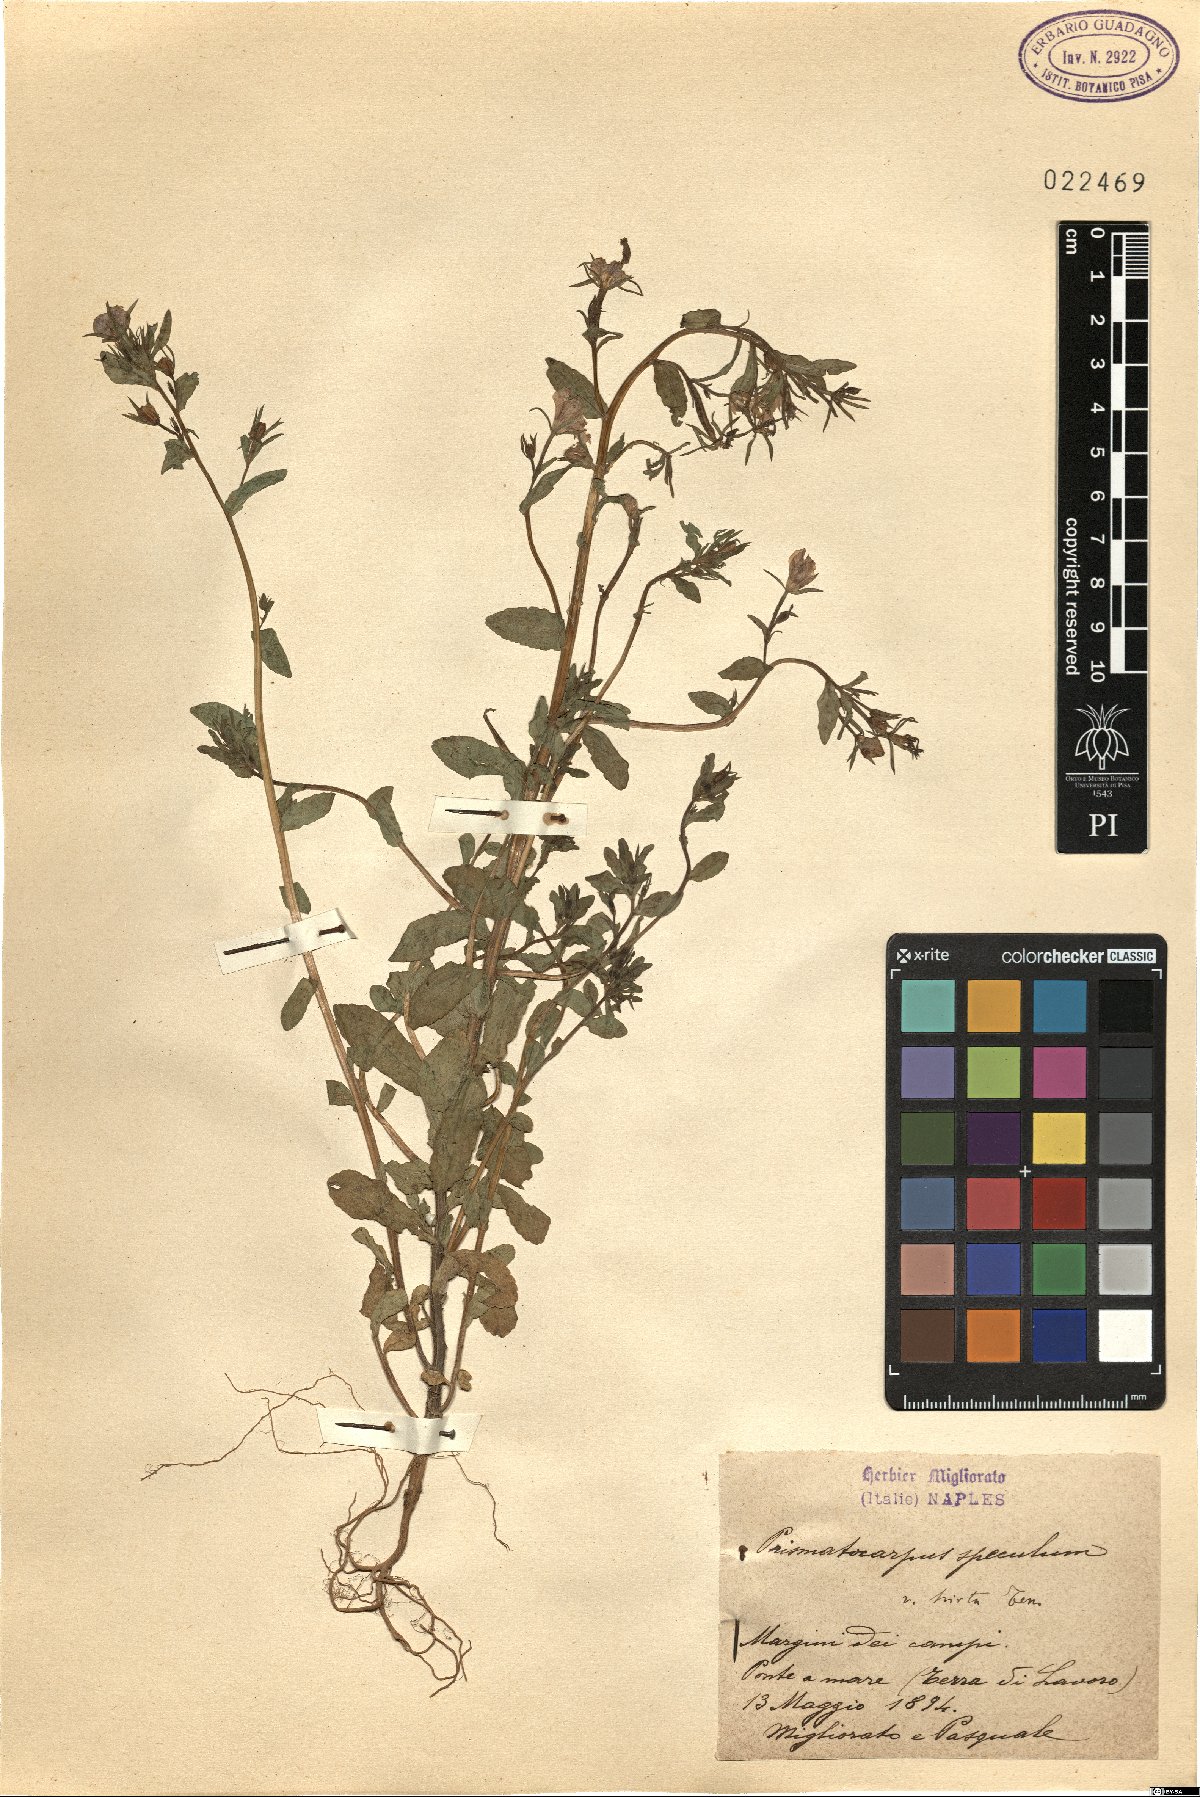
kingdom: Plantae
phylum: Tracheophyta
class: Magnoliopsida
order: Asterales
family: Campanulaceae
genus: Campanula
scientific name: Campanula speculum
